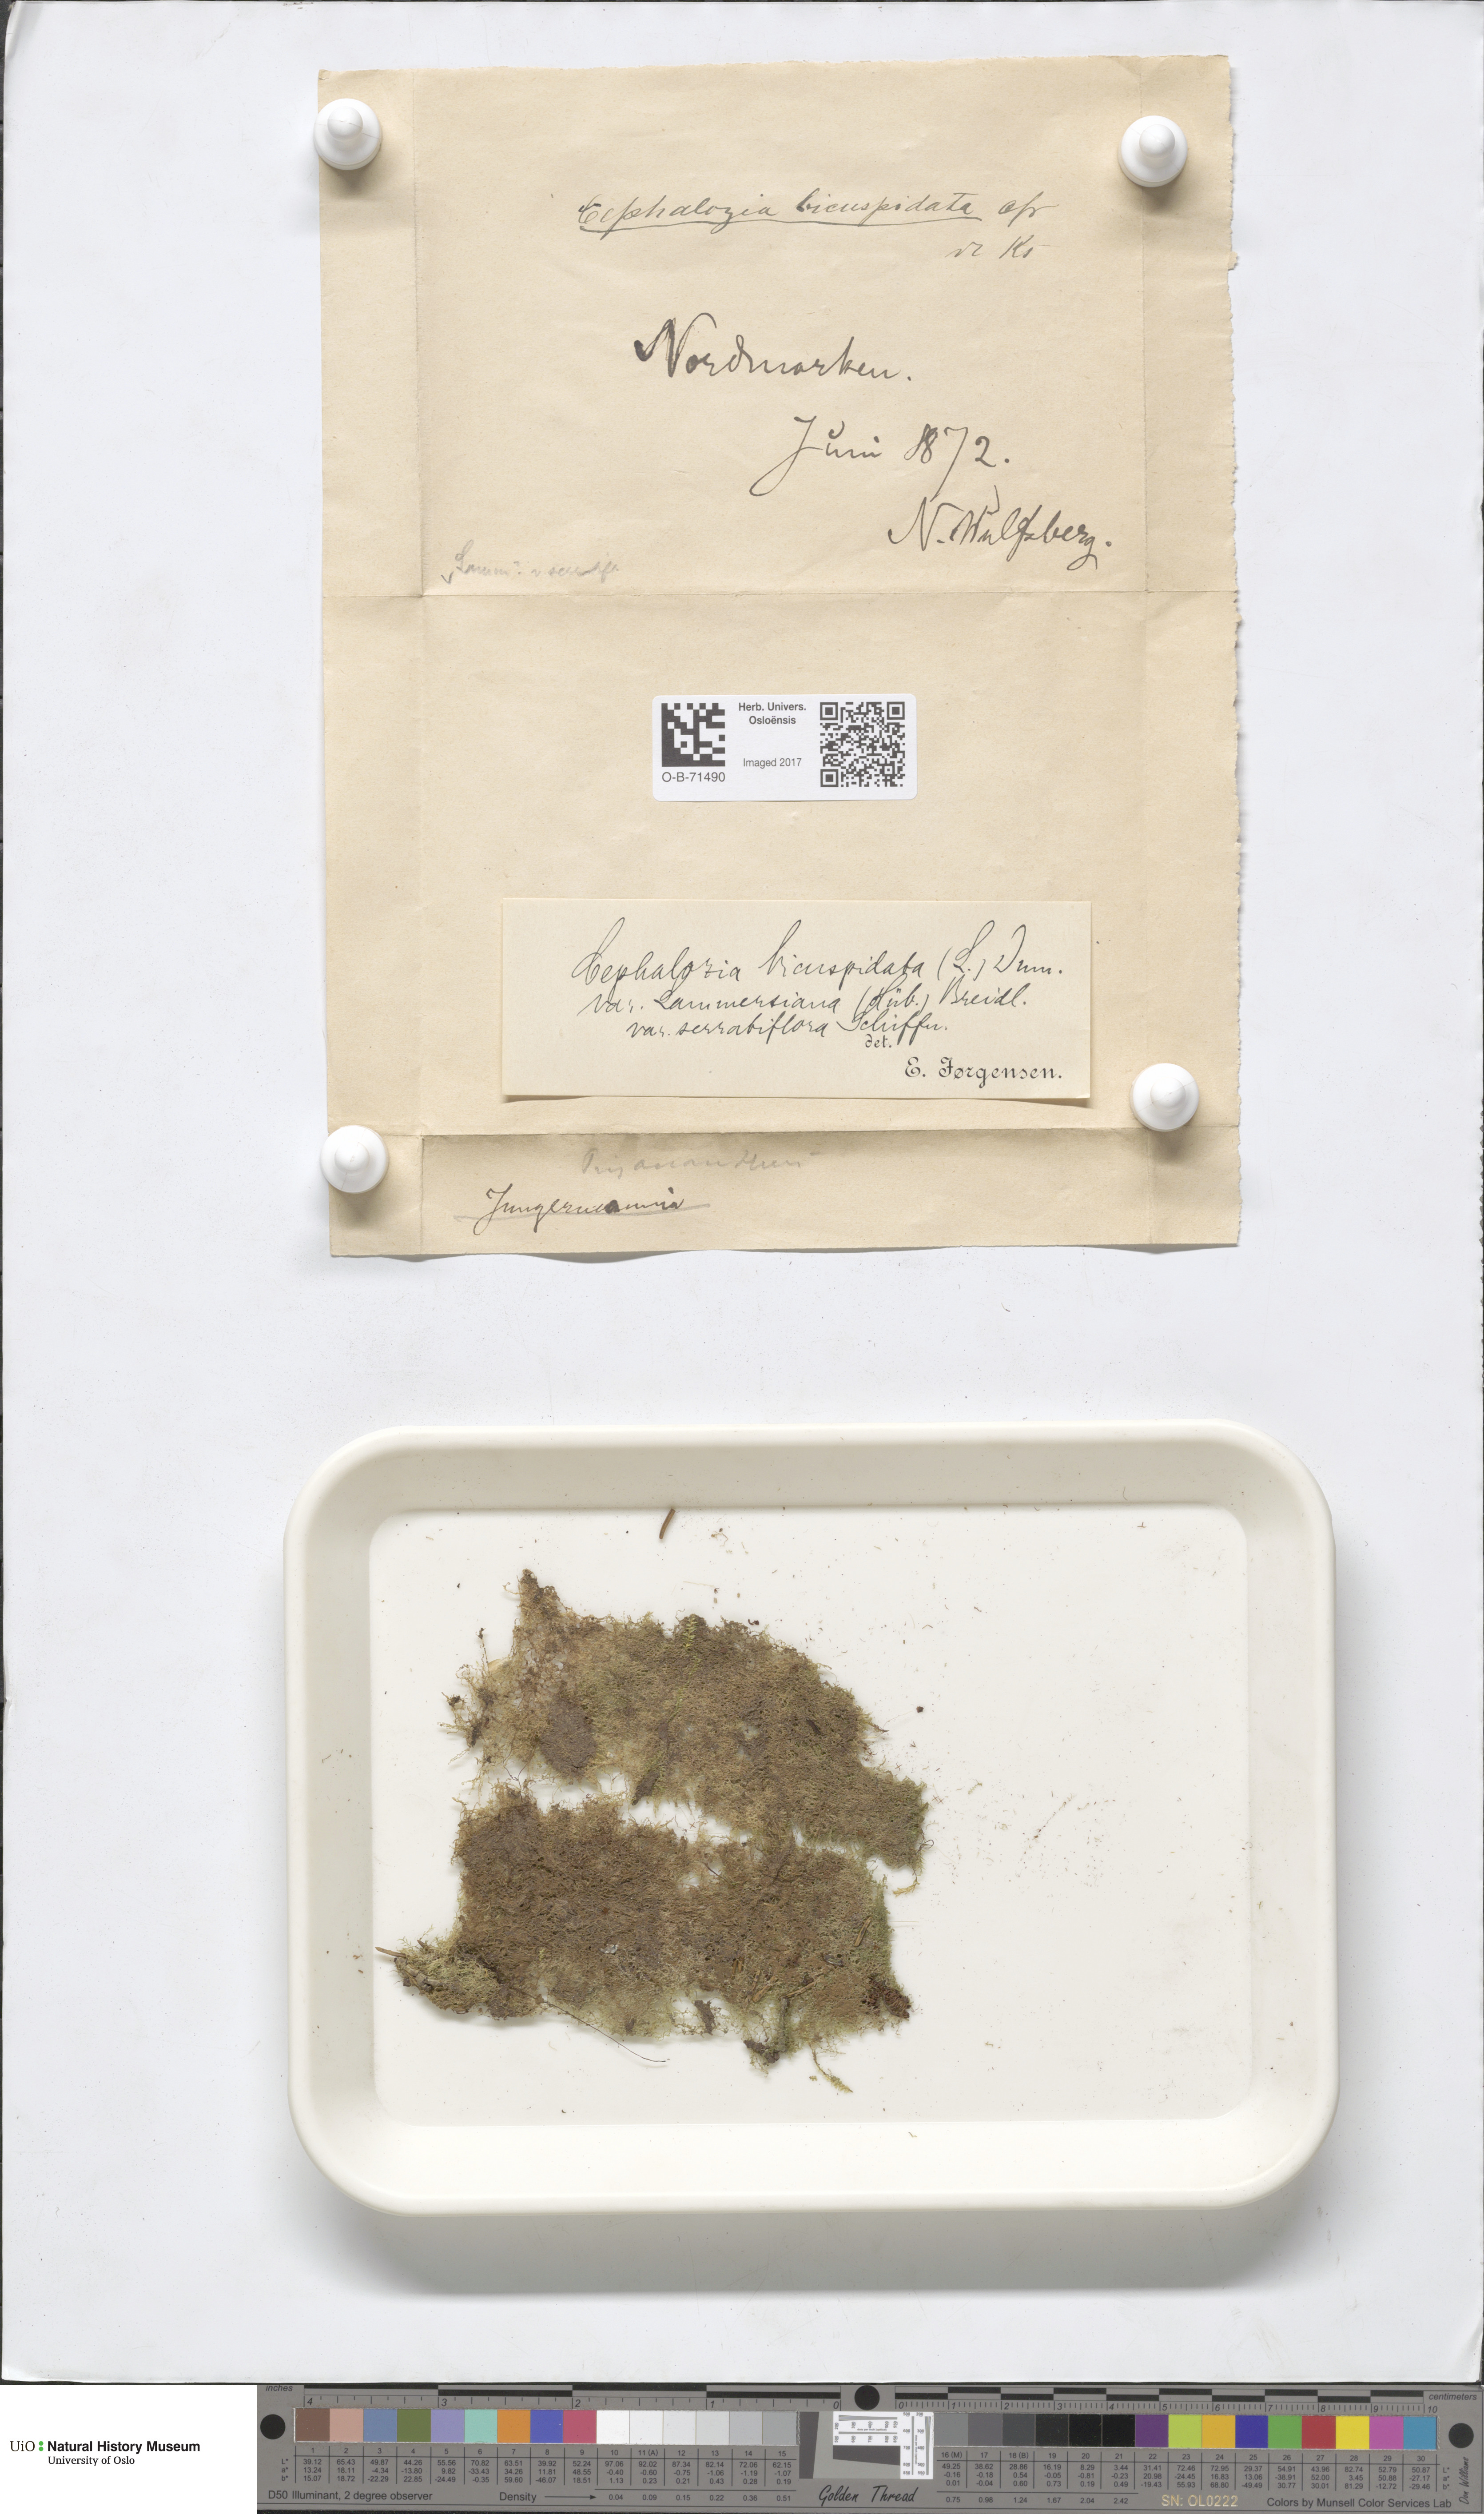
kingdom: Plantae
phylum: Marchantiophyta
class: Jungermanniopsida
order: Jungermanniales
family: Cephaloziaceae
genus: Cephalozia
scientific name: Cephalozia bicuspidata
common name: Two-horned pincerwort
